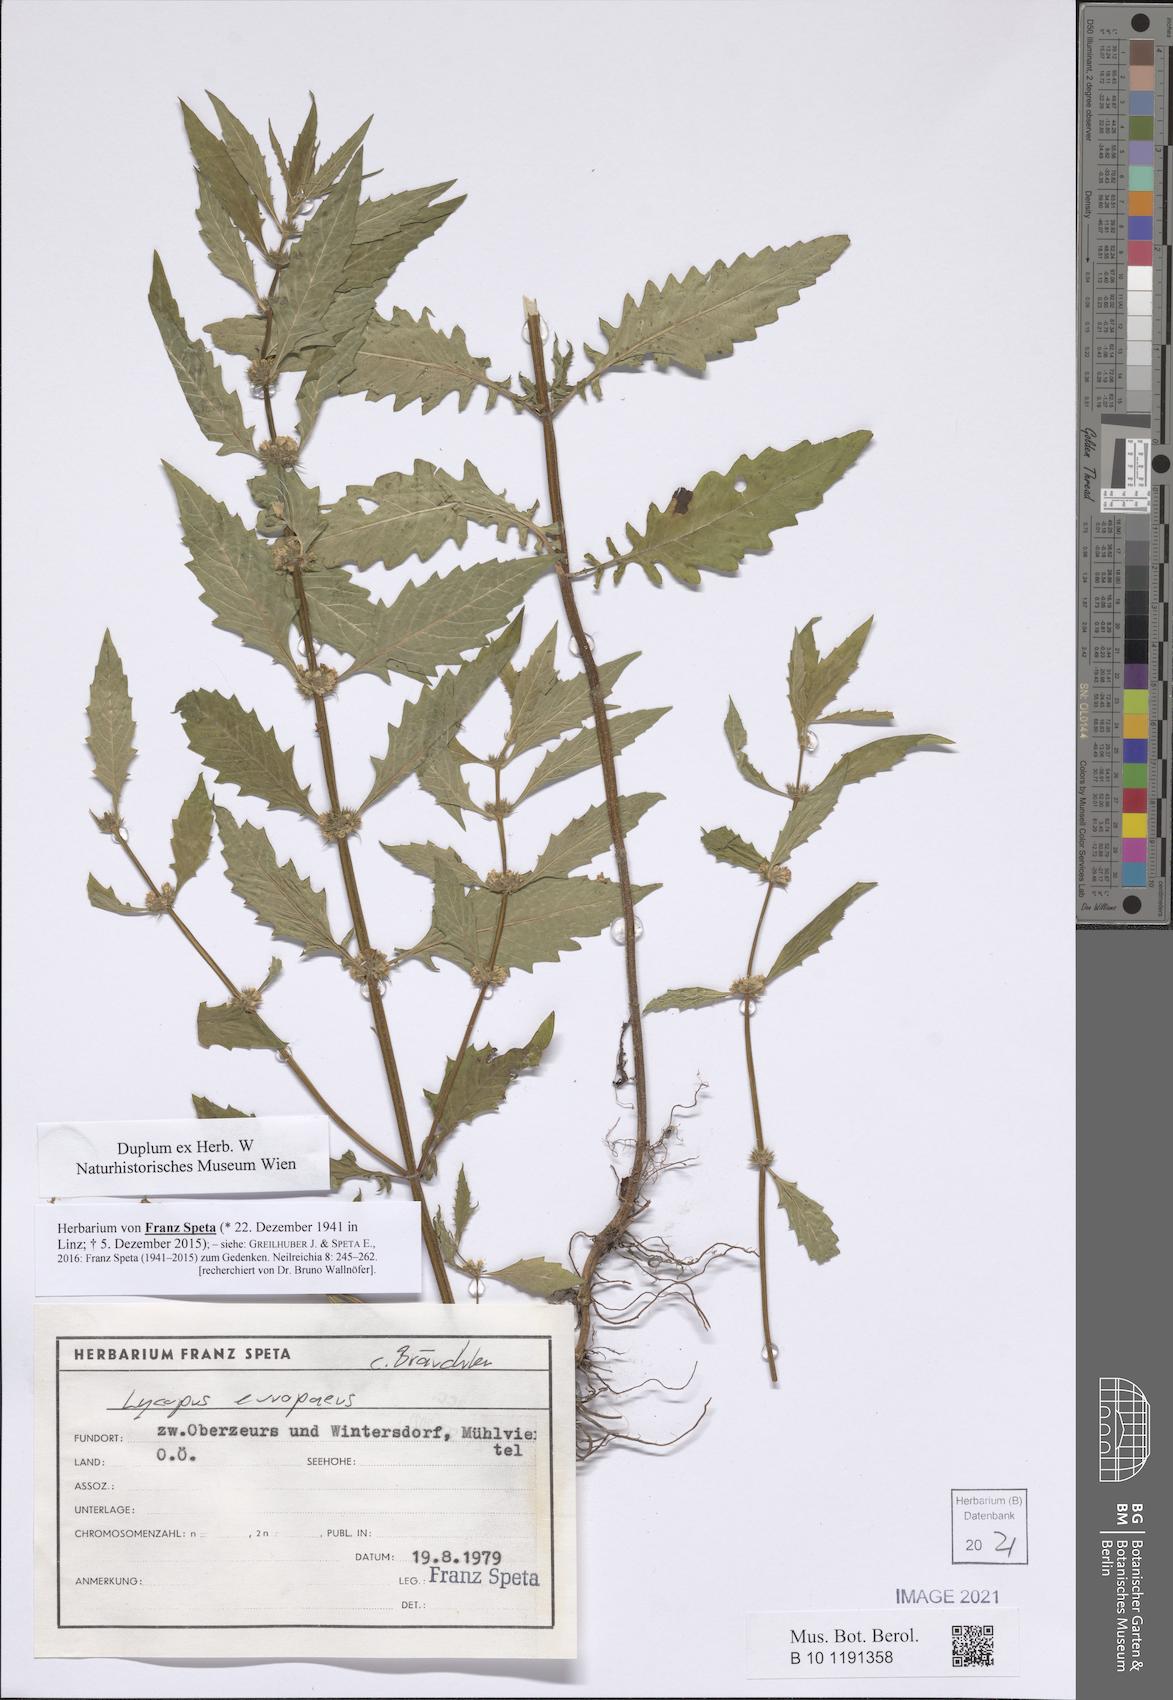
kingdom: Plantae
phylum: Tracheophyta
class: Magnoliopsida
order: Lamiales
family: Lamiaceae
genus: Lycopus
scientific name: Lycopus europaeus
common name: European bugleweed
